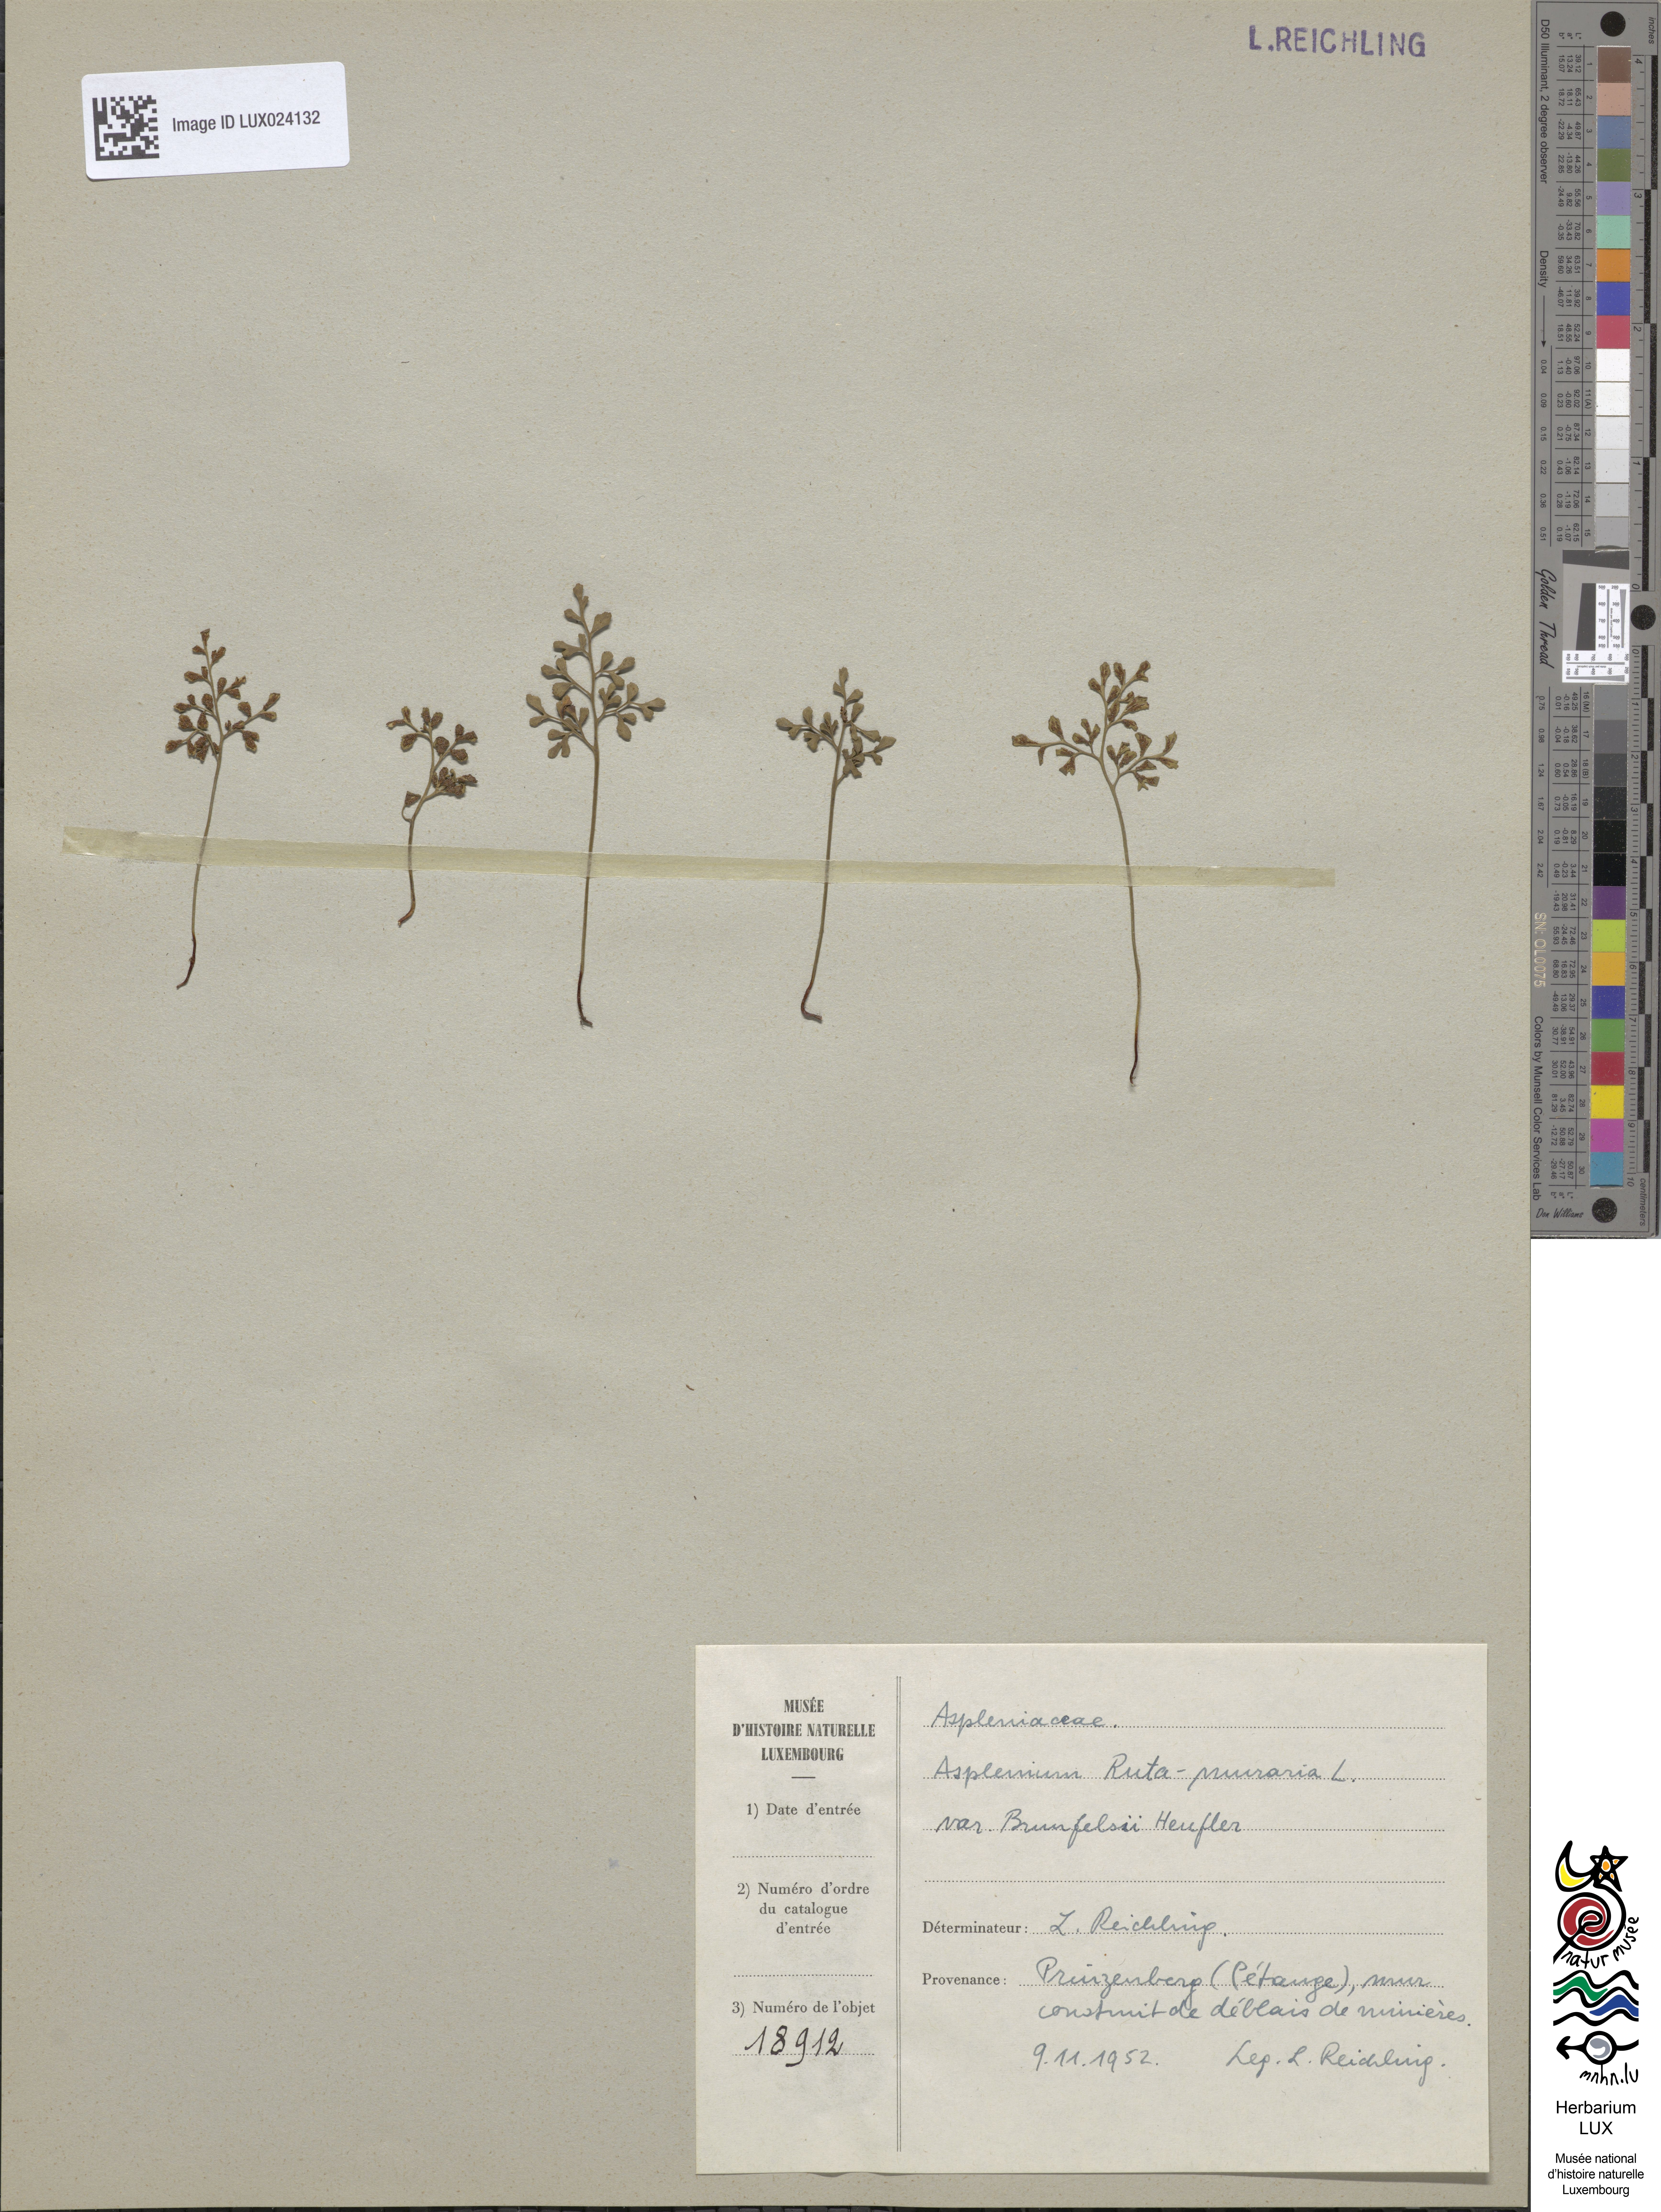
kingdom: Plantae
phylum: Tracheophyta
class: Polypodiopsida
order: Polypodiales
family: Aspleniaceae
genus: Asplenium
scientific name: Asplenium ruta-muraria
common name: Wall-rue
